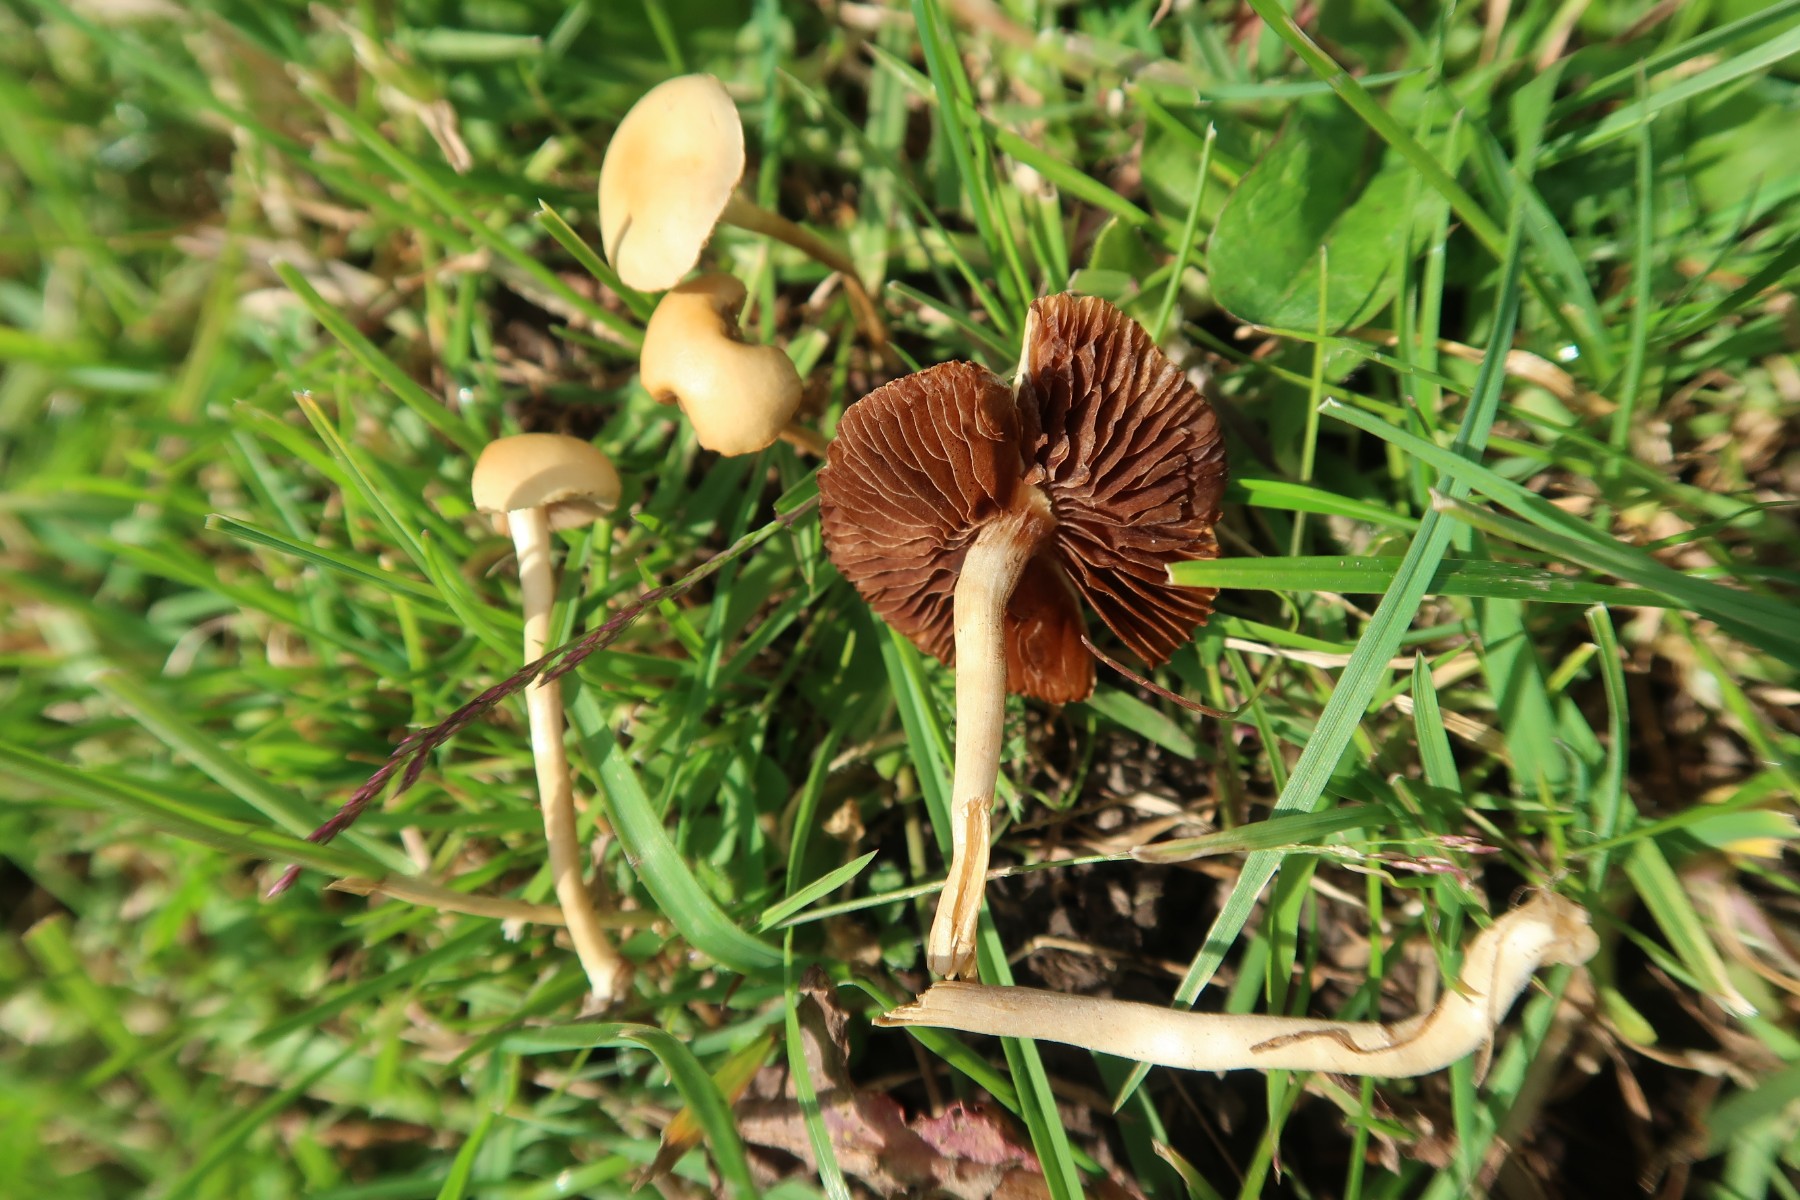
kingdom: Fungi
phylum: Basidiomycota
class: Agaricomycetes
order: Agaricales
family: Strophariaceae
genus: Agrocybe
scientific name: Agrocybe pediades
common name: almindelig agerhat
